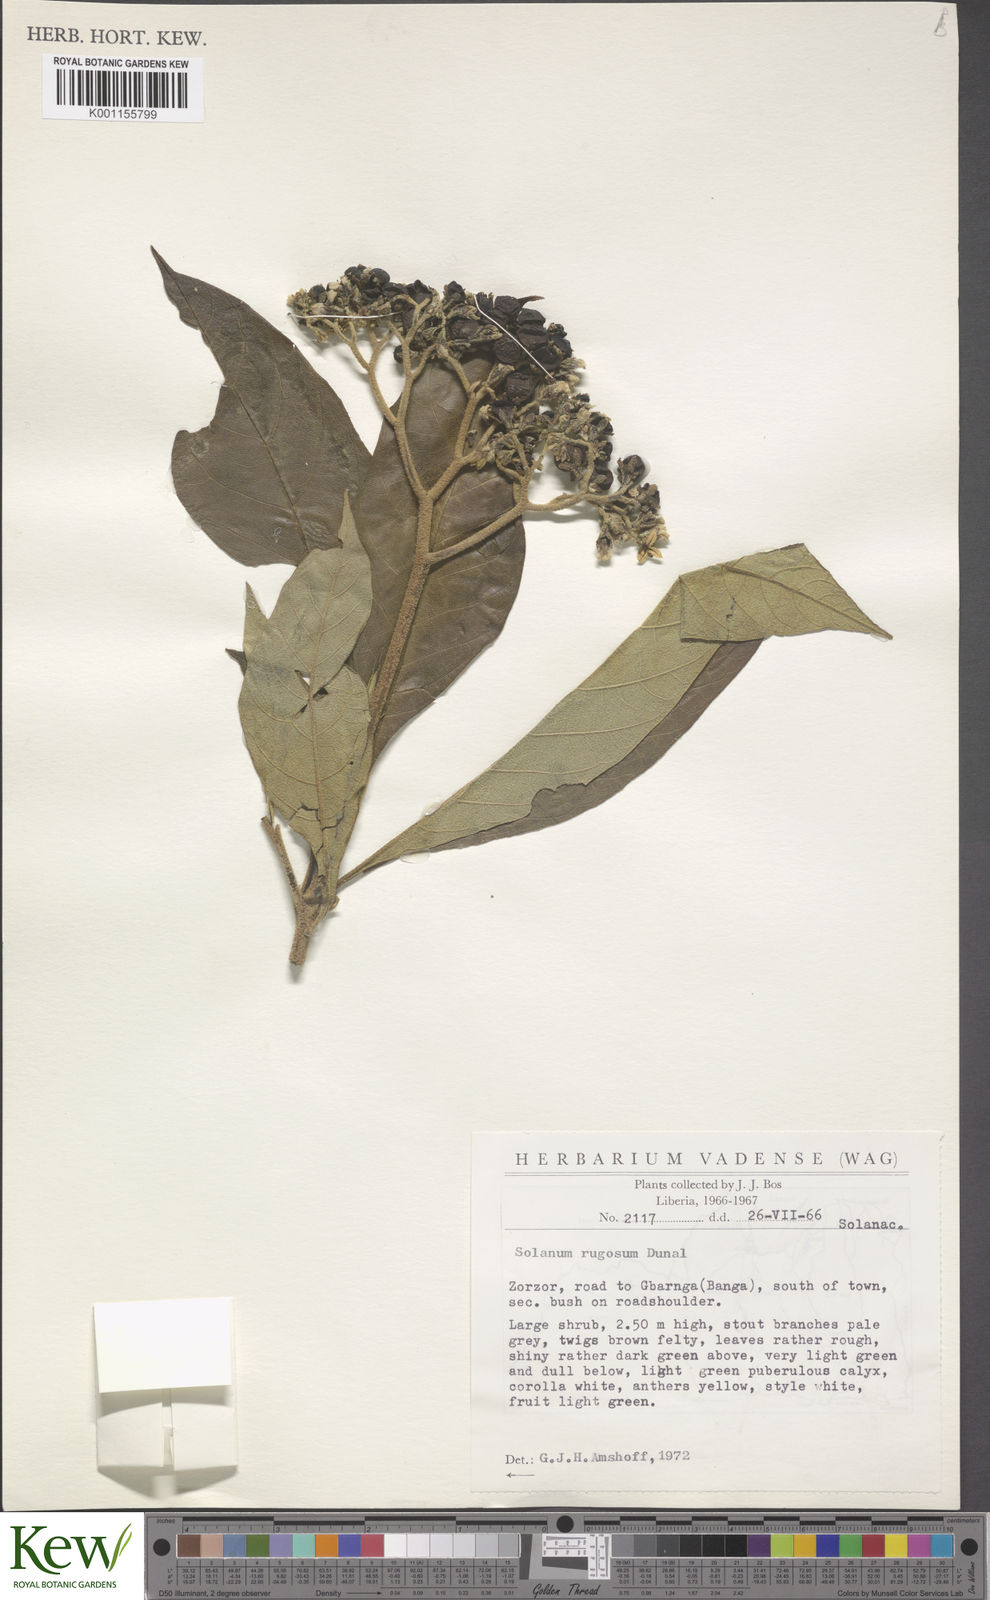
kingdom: Plantae
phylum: Tracheophyta
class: Magnoliopsida
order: Solanales
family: Solanaceae
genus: Solanum
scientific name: Solanum rugosum
